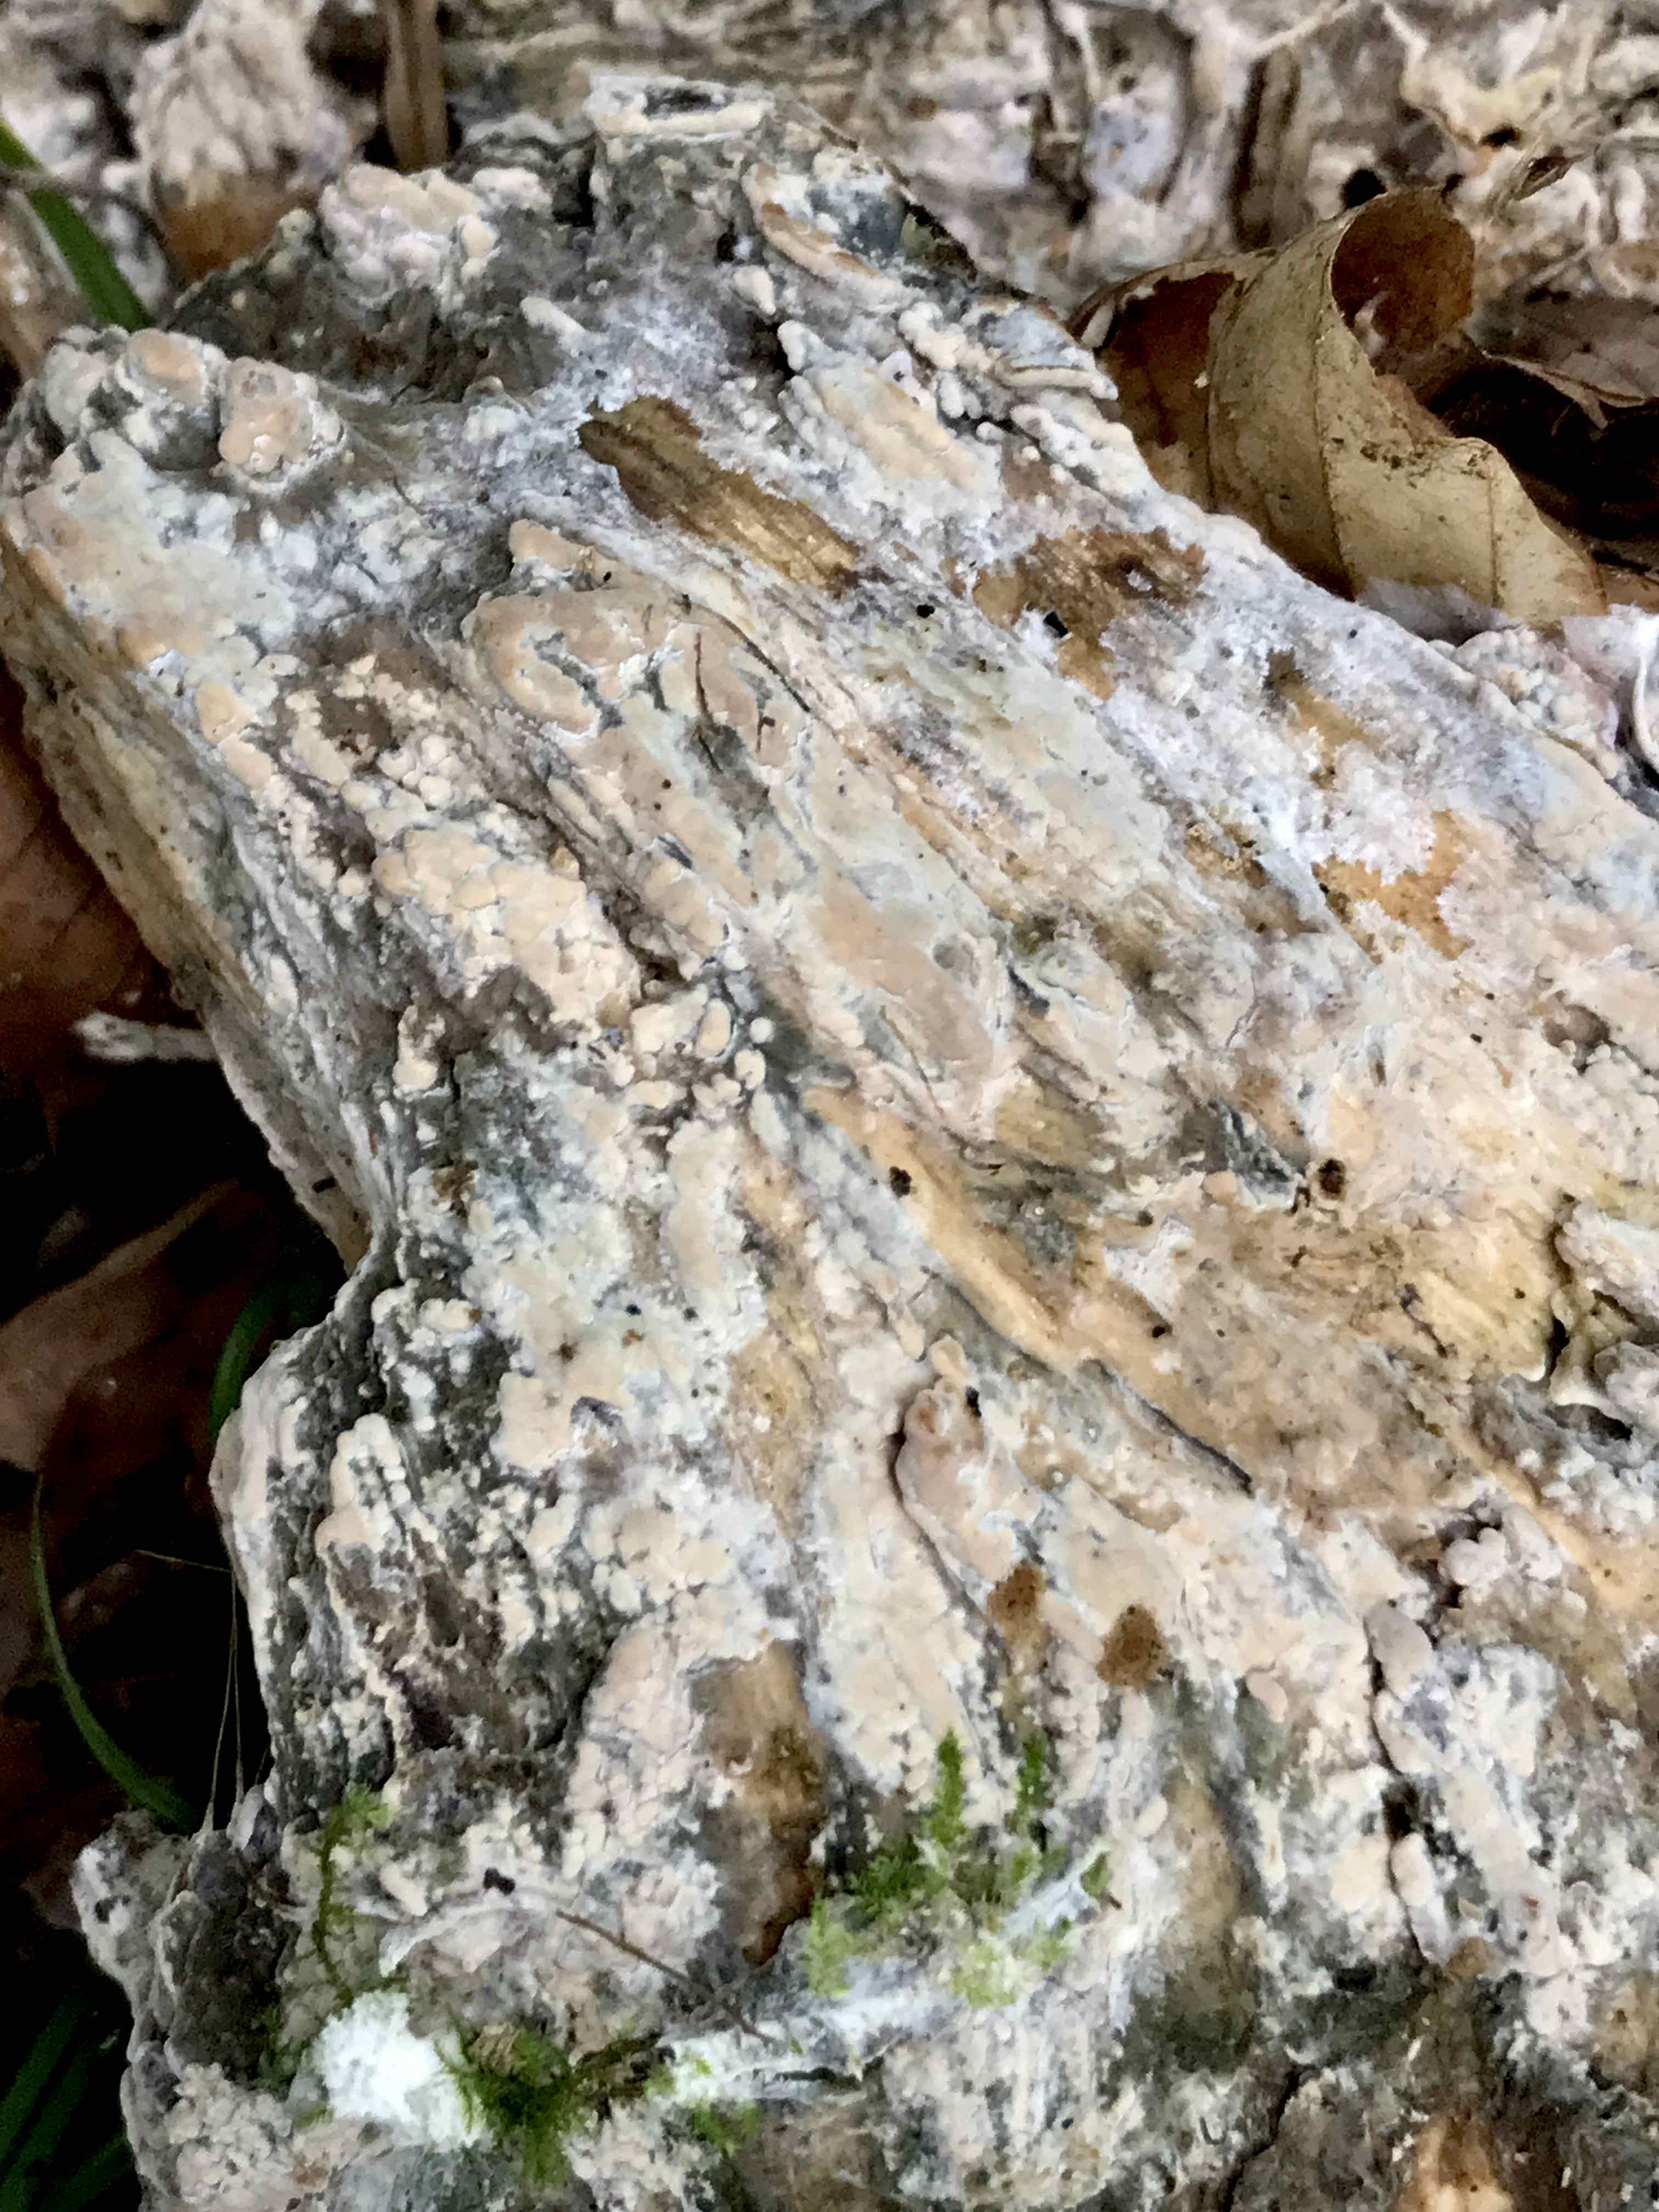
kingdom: Fungi
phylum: Basidiomycota
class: Agaricomycetes
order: Corticiales
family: Corticiaceae
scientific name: Corticiaceae
